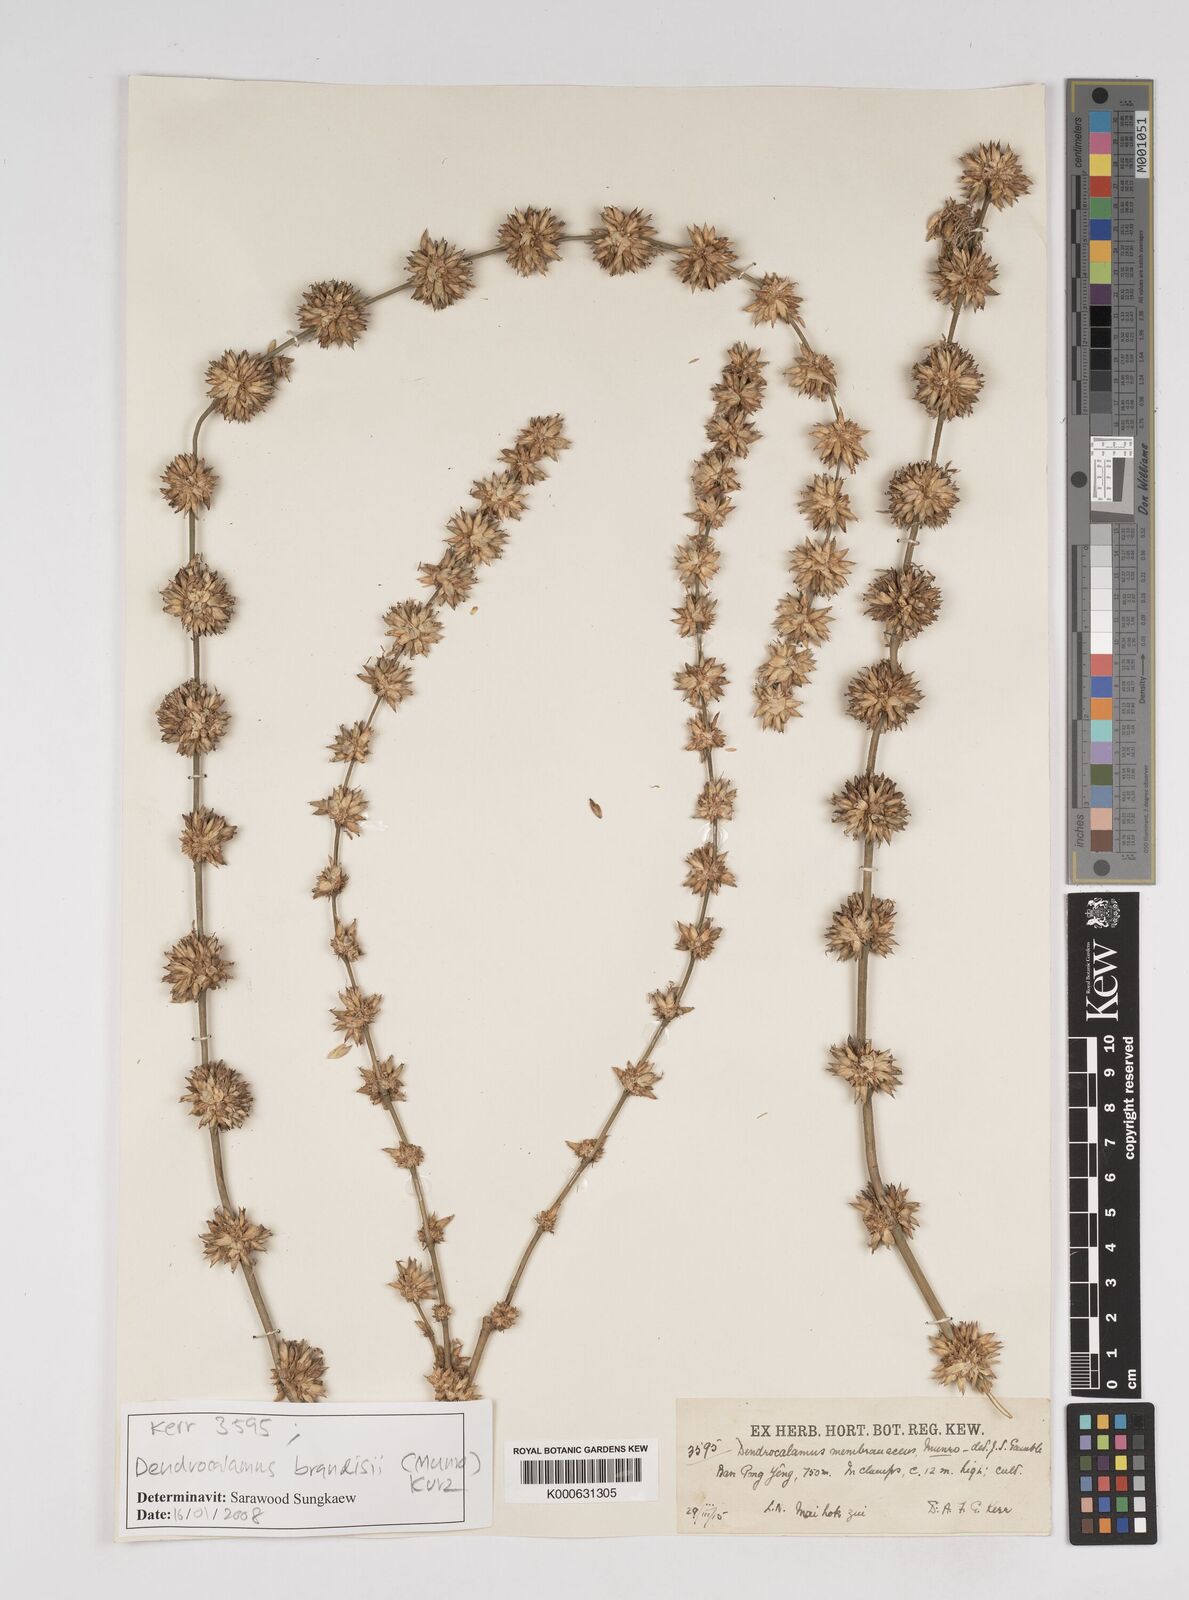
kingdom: Plantae
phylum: Tracheophyta
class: Liliopsida
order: Poales
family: Poaceae
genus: Dendrocalamus
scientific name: Dendrocalamus brandisii
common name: Velvetleaf bamboo
